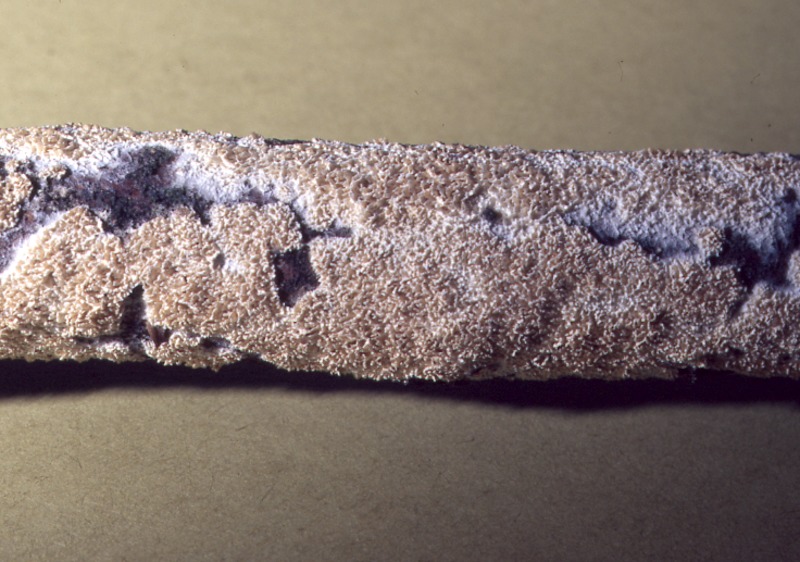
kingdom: Fungi
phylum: Basidiomycota
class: Agaricomycetes
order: Hymenochaetales
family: Schizoporaceae
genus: Xylodon
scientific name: Xylodon radula
